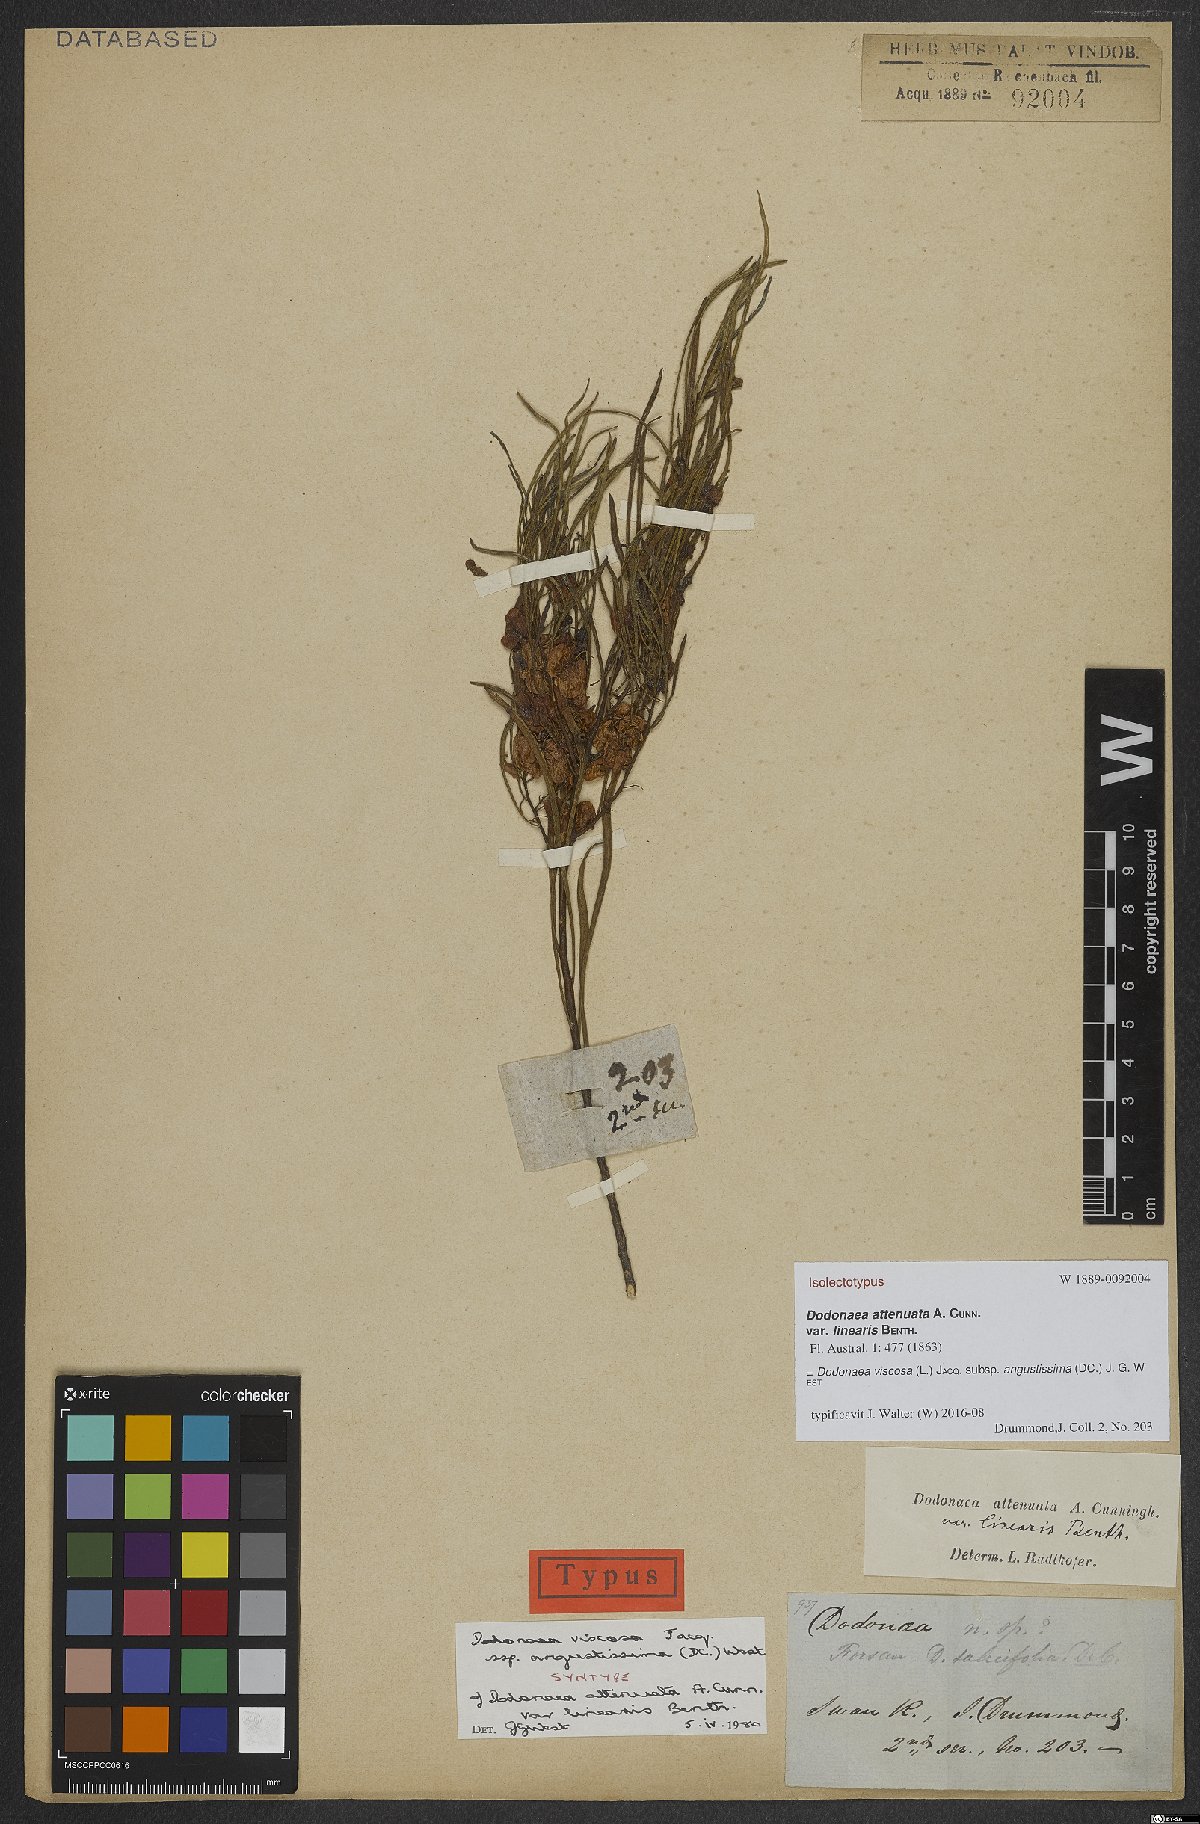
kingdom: Plantae
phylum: Tracheophyta
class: Magnoliopsida
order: Sapindales
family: Sapindaceae
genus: Dodonaea
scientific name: Dodonaea viscosa
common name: Hopbush
